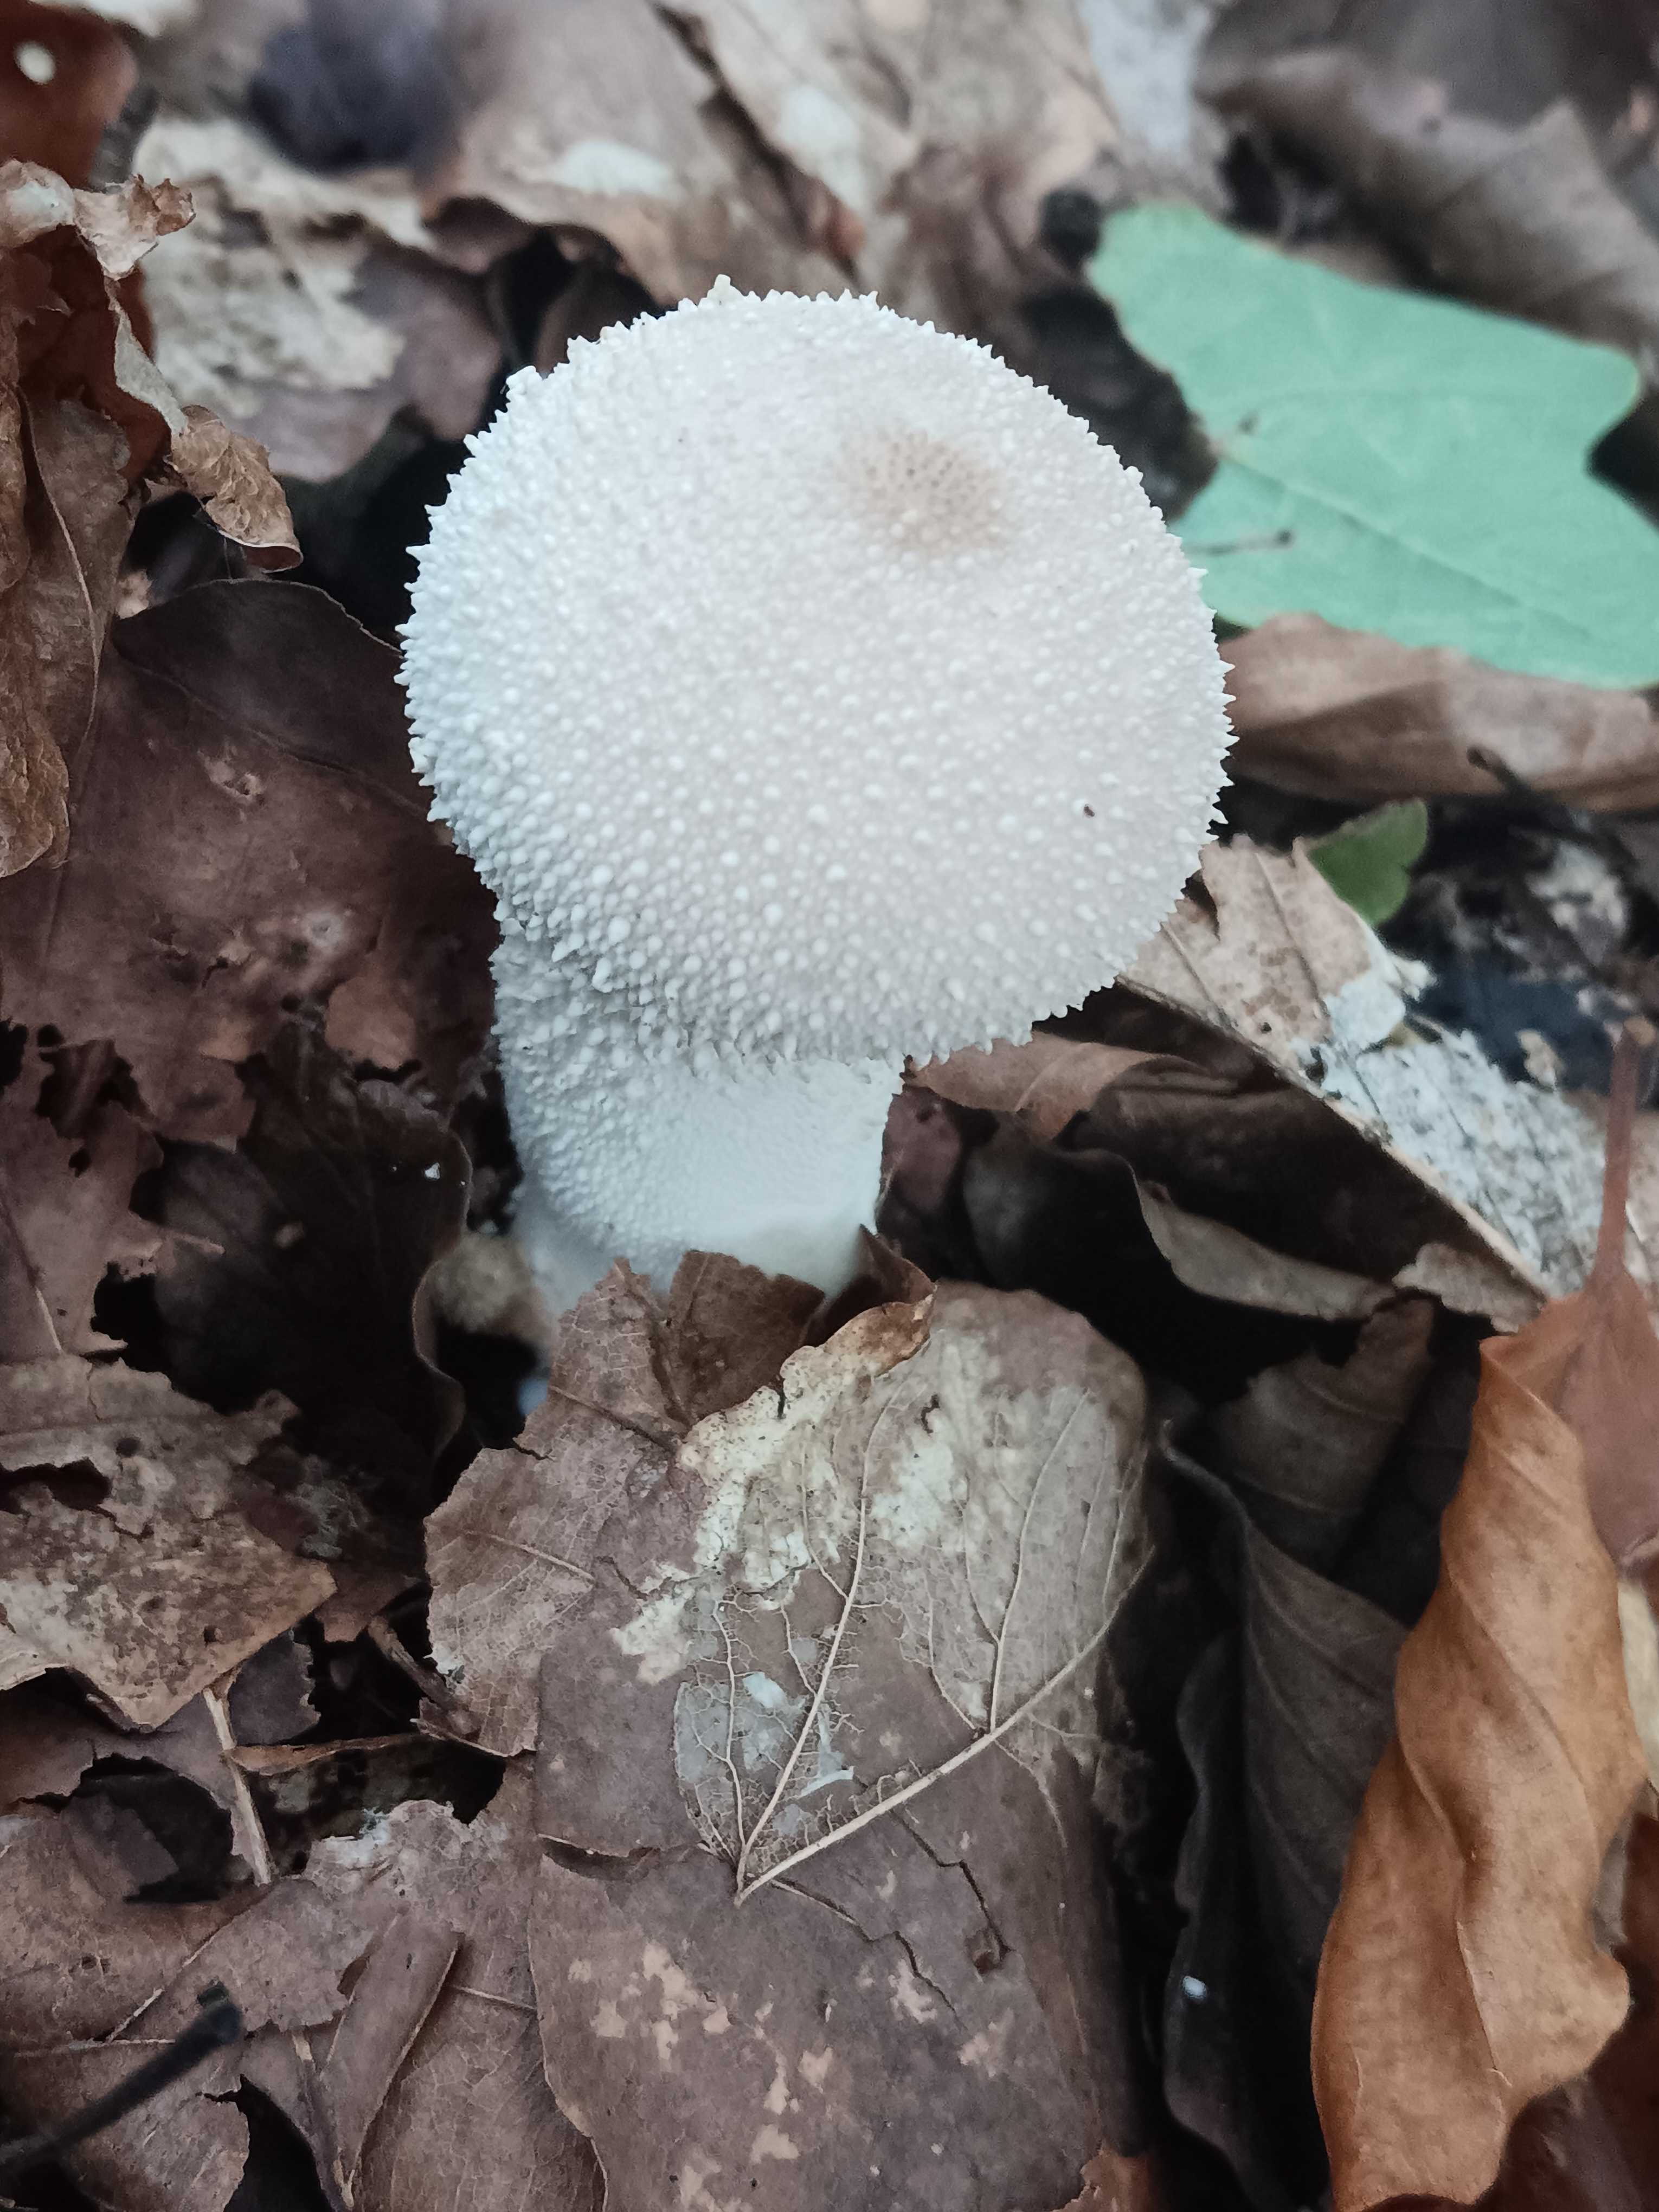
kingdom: Fungi
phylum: Basidiomycota
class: Agaricomycetes
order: Agaricales
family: Lycoperdaceae
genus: Lycoperdon
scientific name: Lycoperdon perlatum
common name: krystal-støvbold
